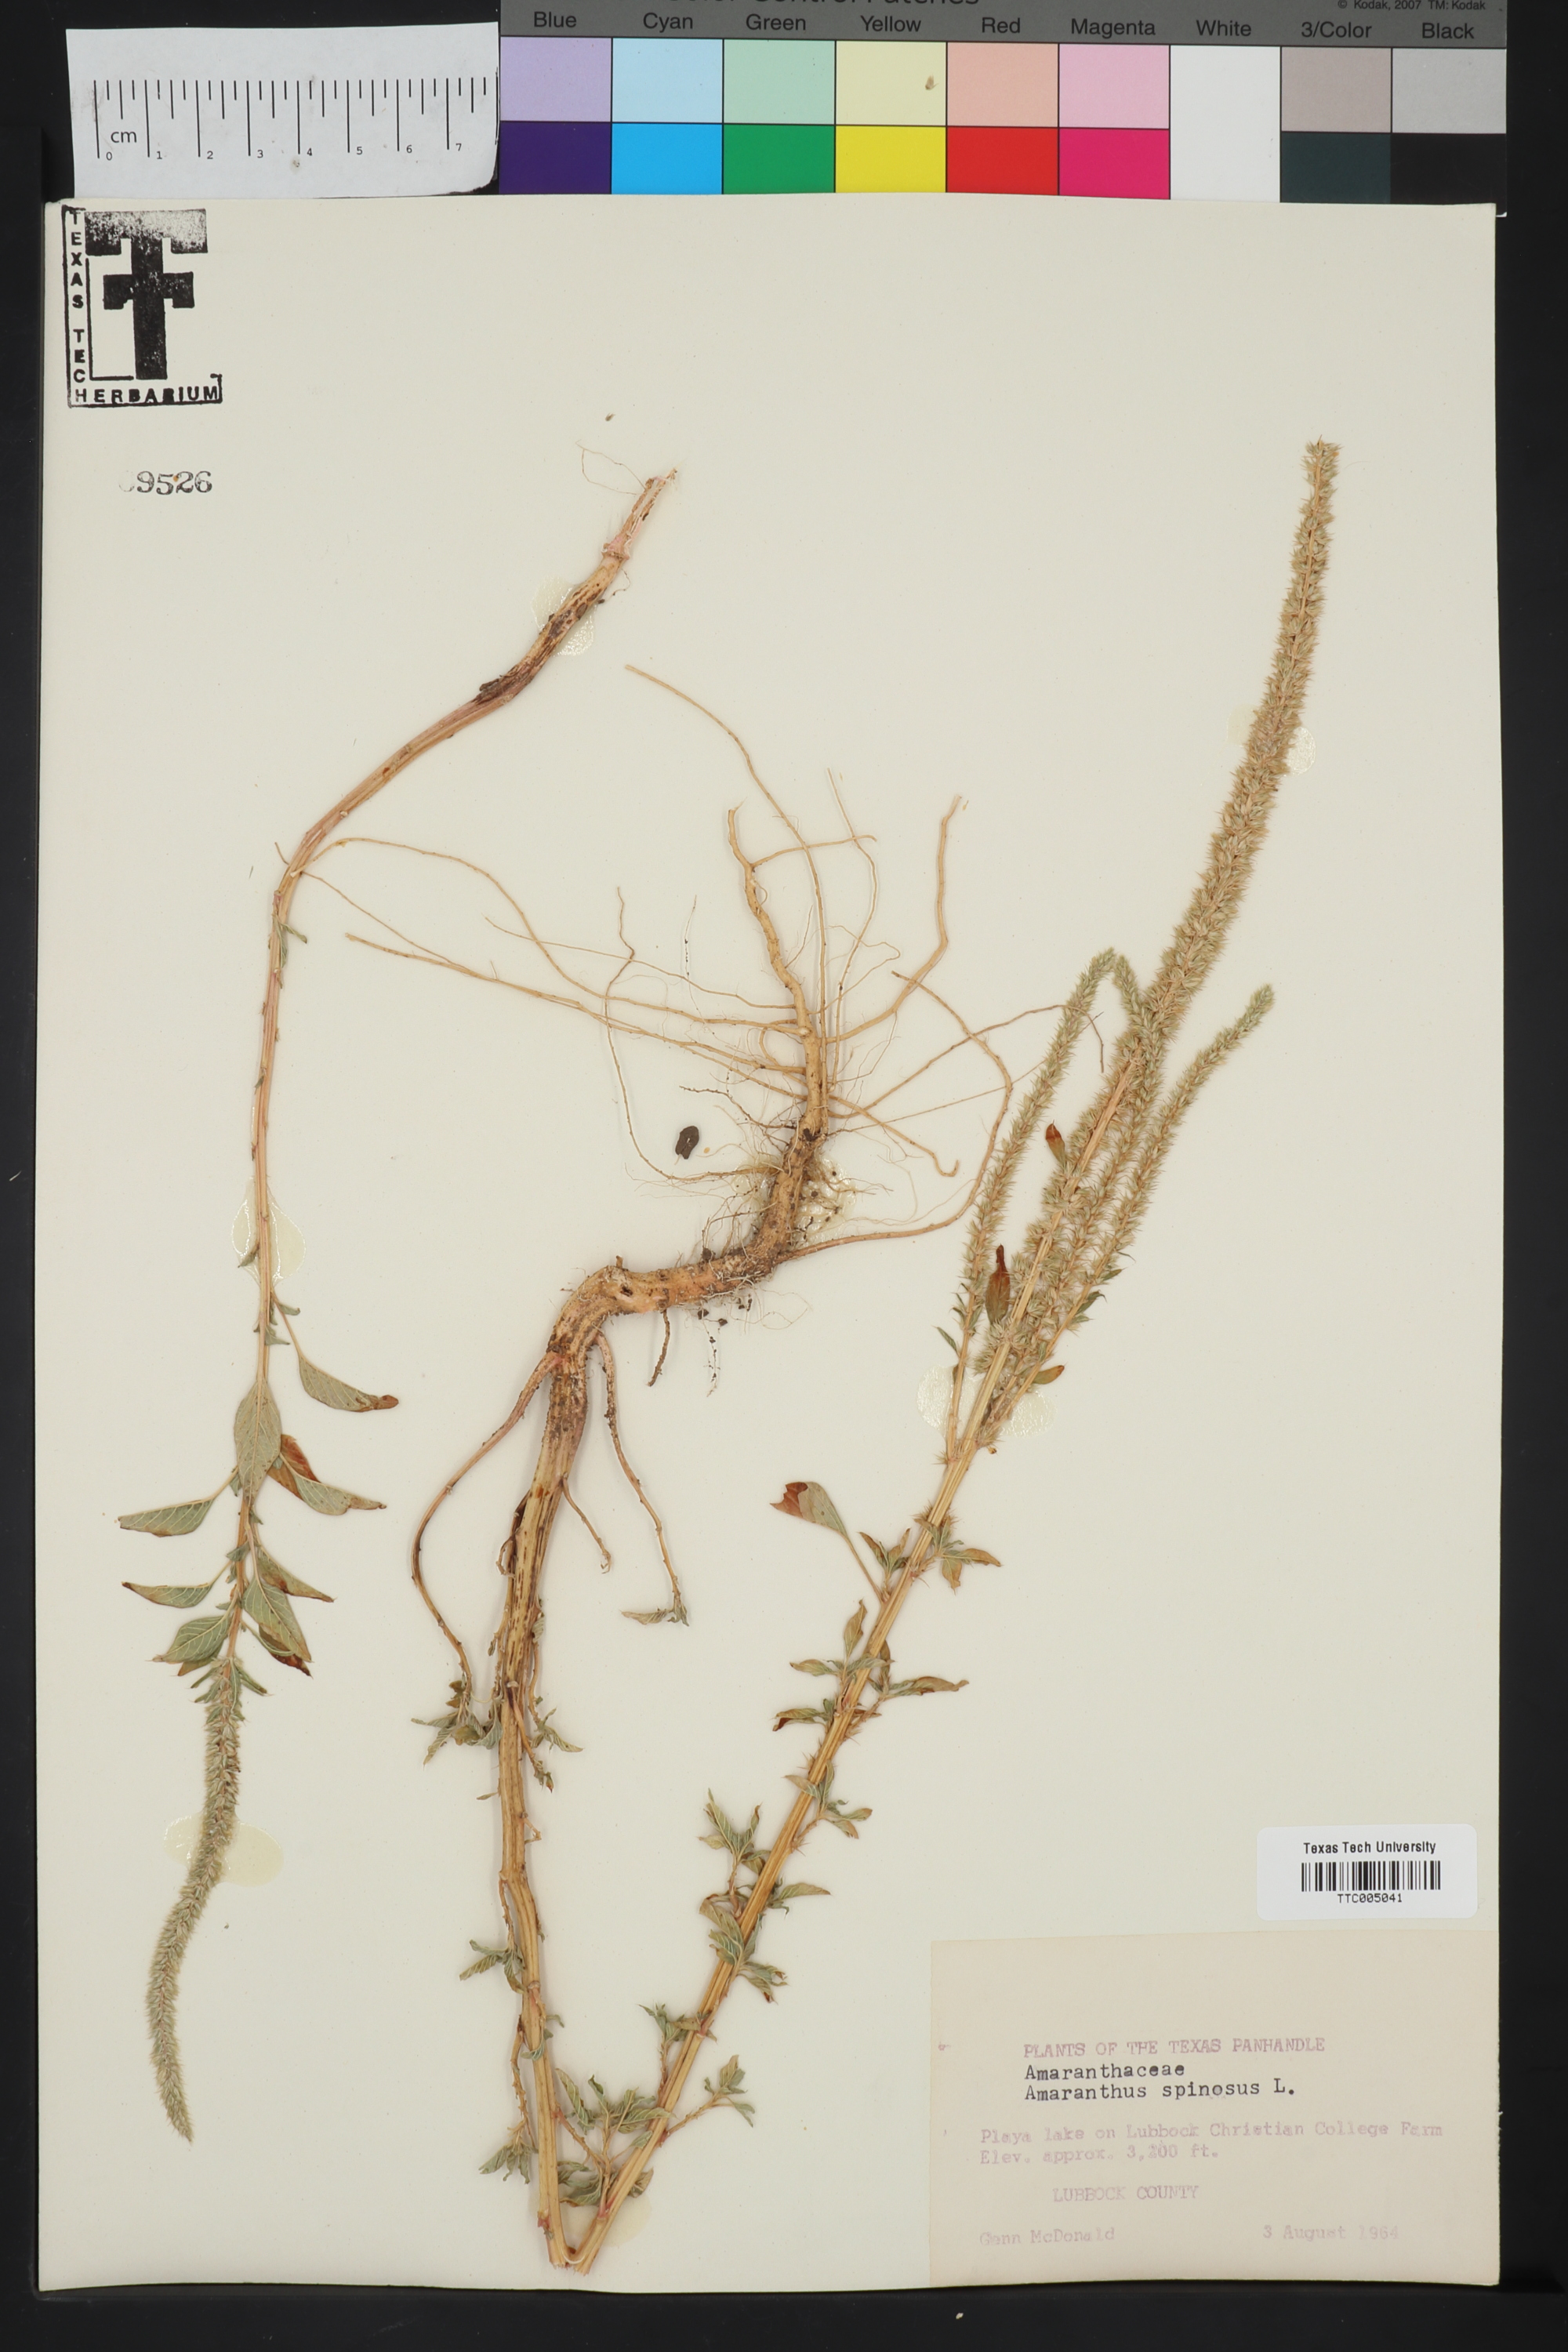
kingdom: Plantae
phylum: Tracheophyta
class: Magnoliopsida
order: Caryophyllales
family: Amaranthaceae
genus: Amaranthus
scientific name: Amaranthus spinosus
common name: Spiny amaranth
